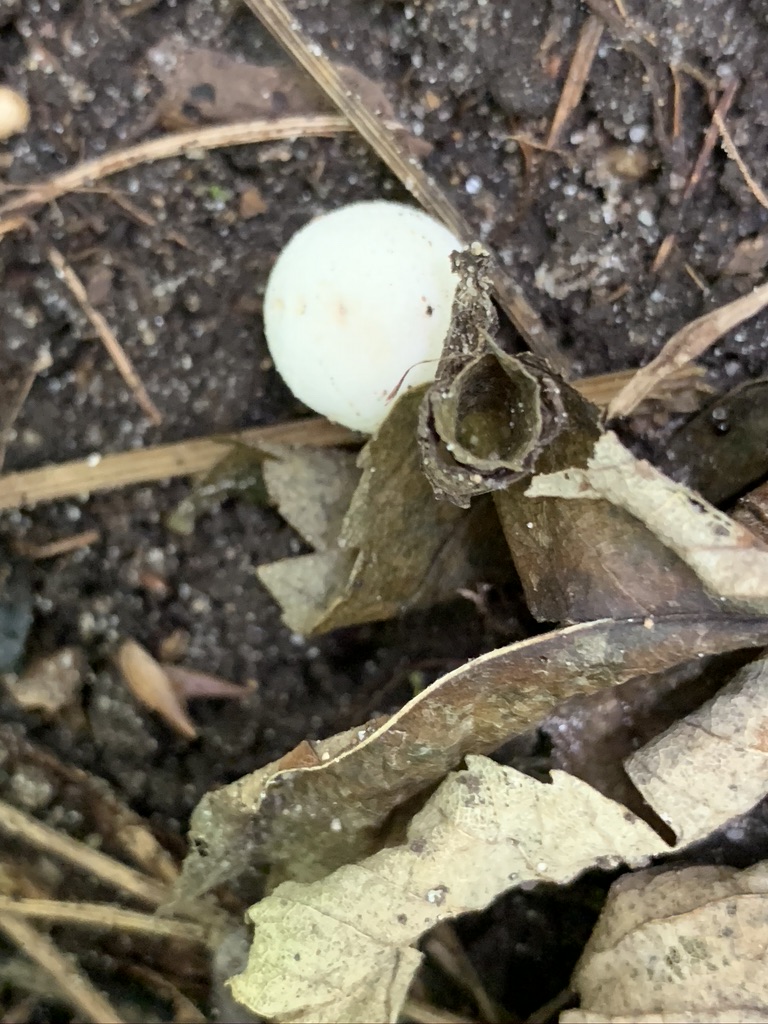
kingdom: Fungi
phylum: Basidiomycota
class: Agaricomycetes
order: Agaricales
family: Lycoperdaceae
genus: Bovista
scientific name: Bovista
